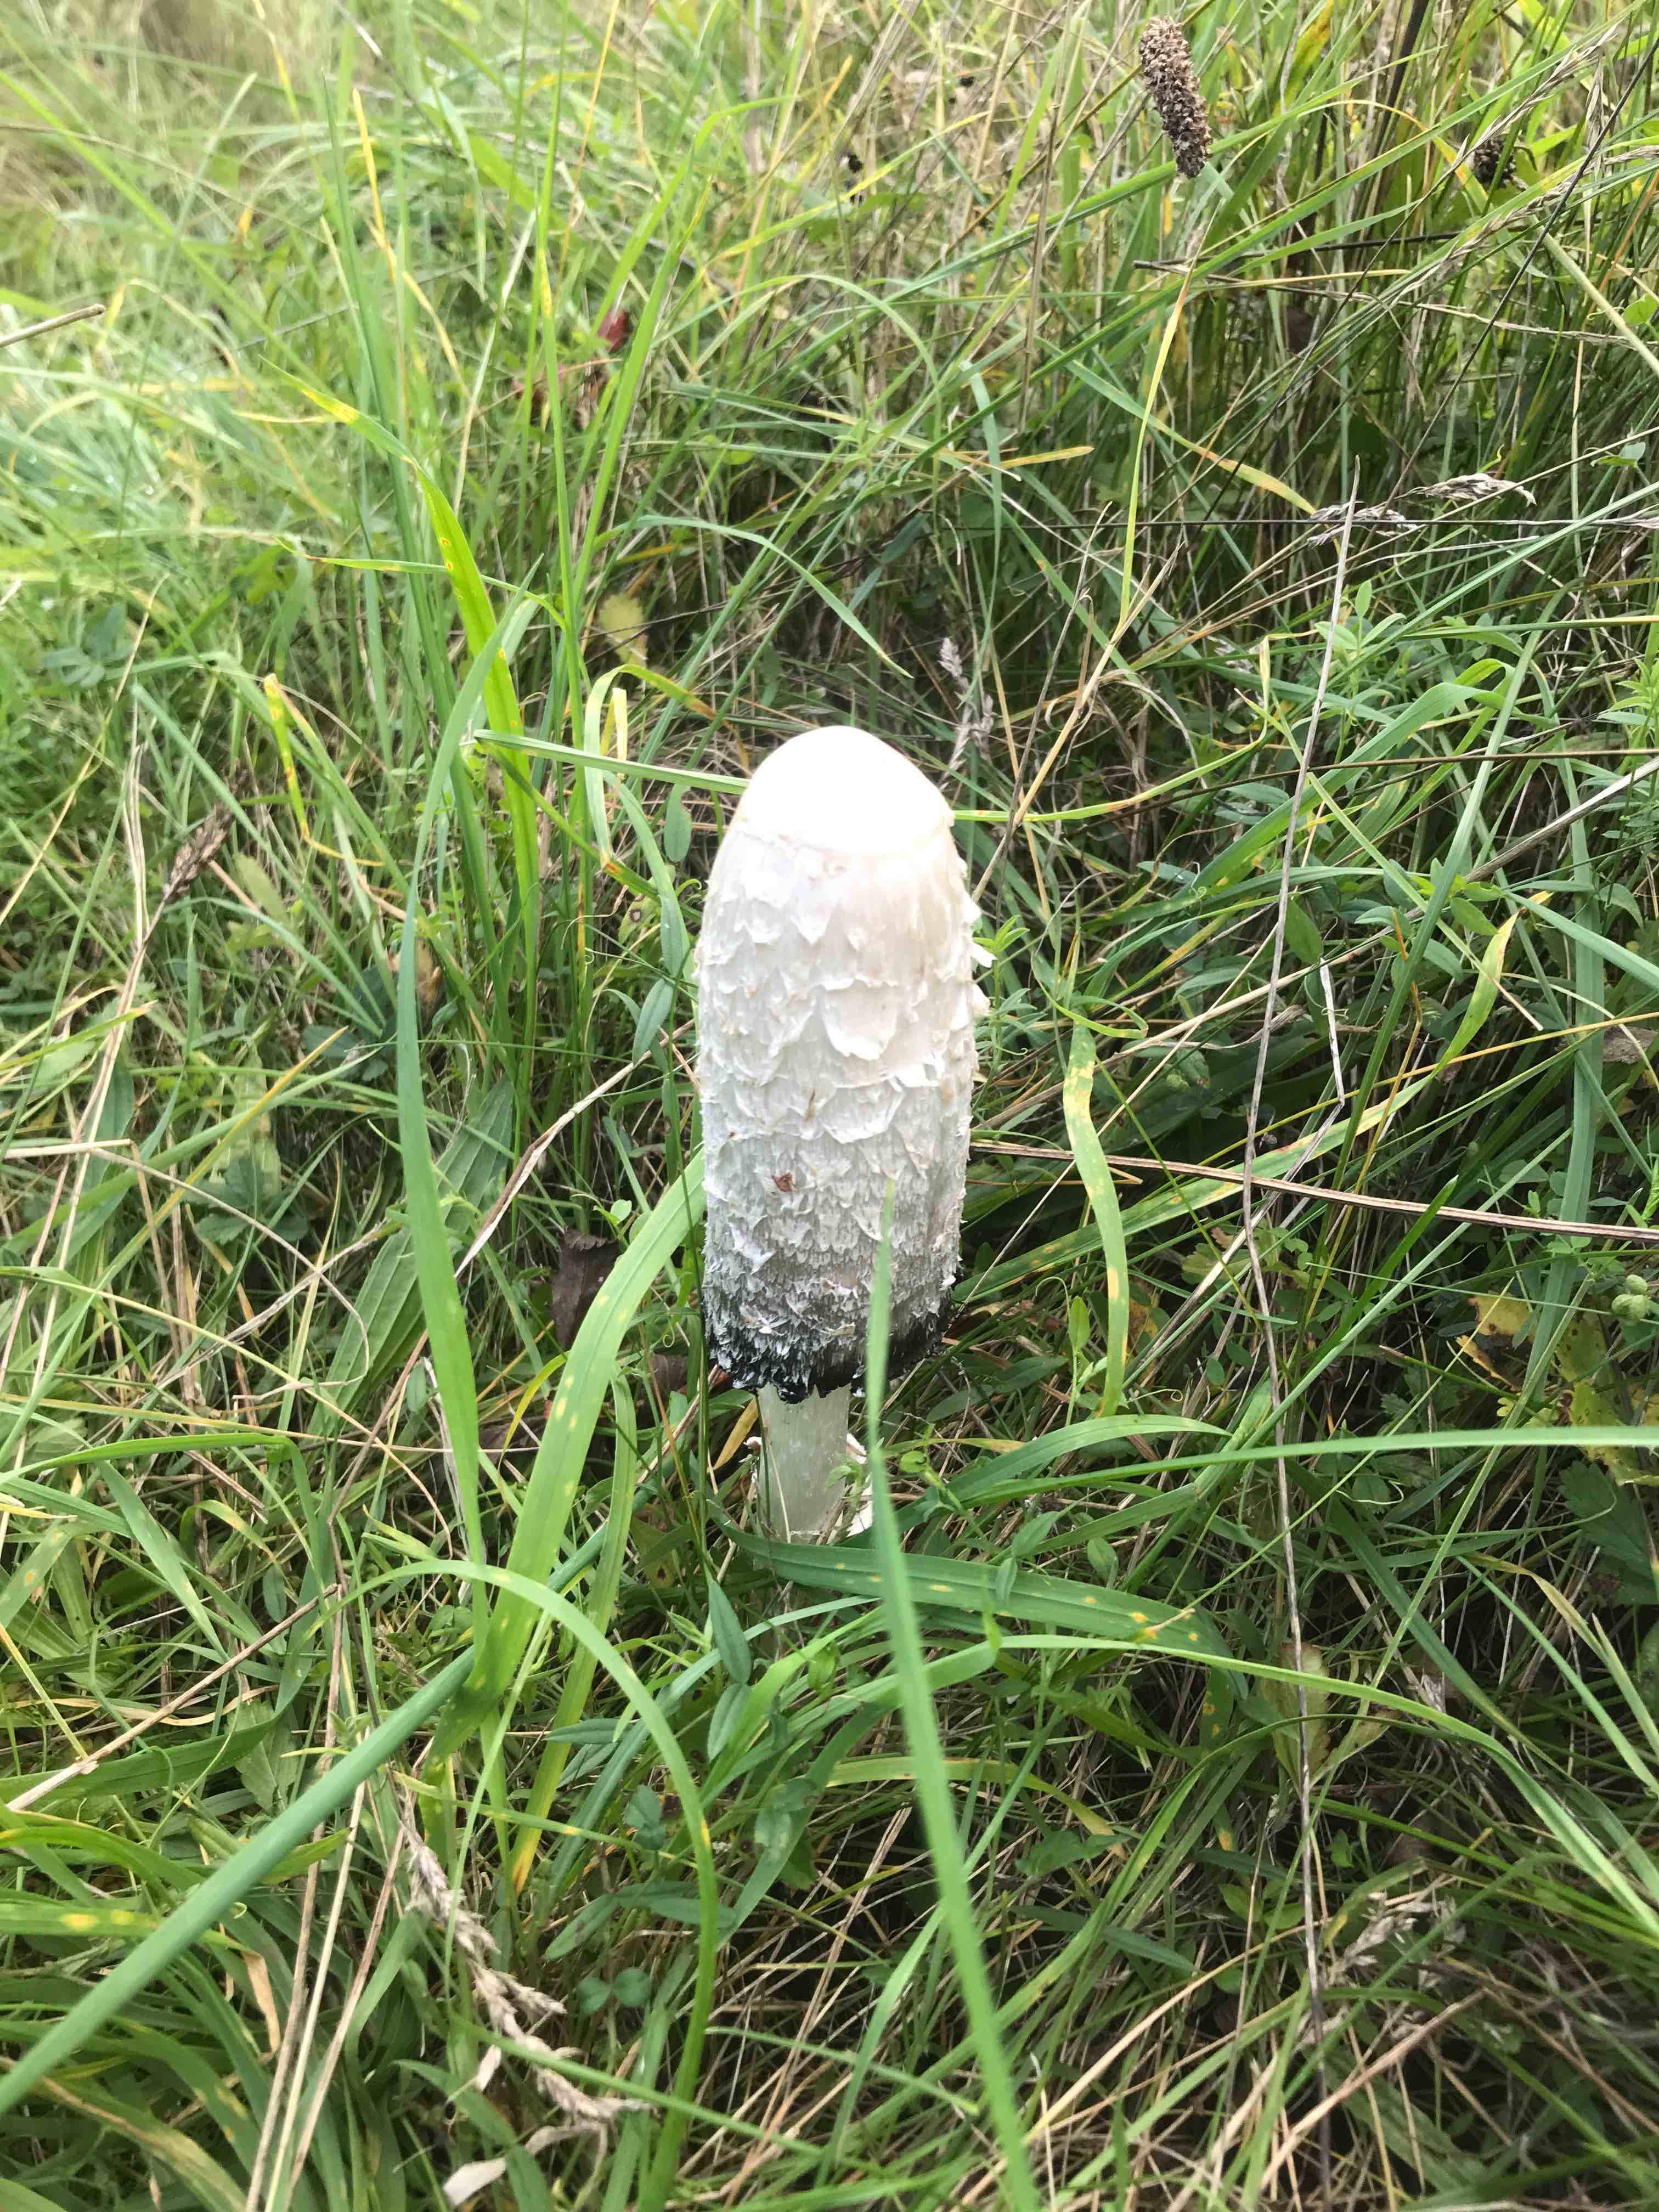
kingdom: Fungi
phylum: Basidiomycota
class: Agaricomycetes
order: Agaricales
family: Agaricaceae
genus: Coprinus
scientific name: Coprinus comatus
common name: stor parykhat
